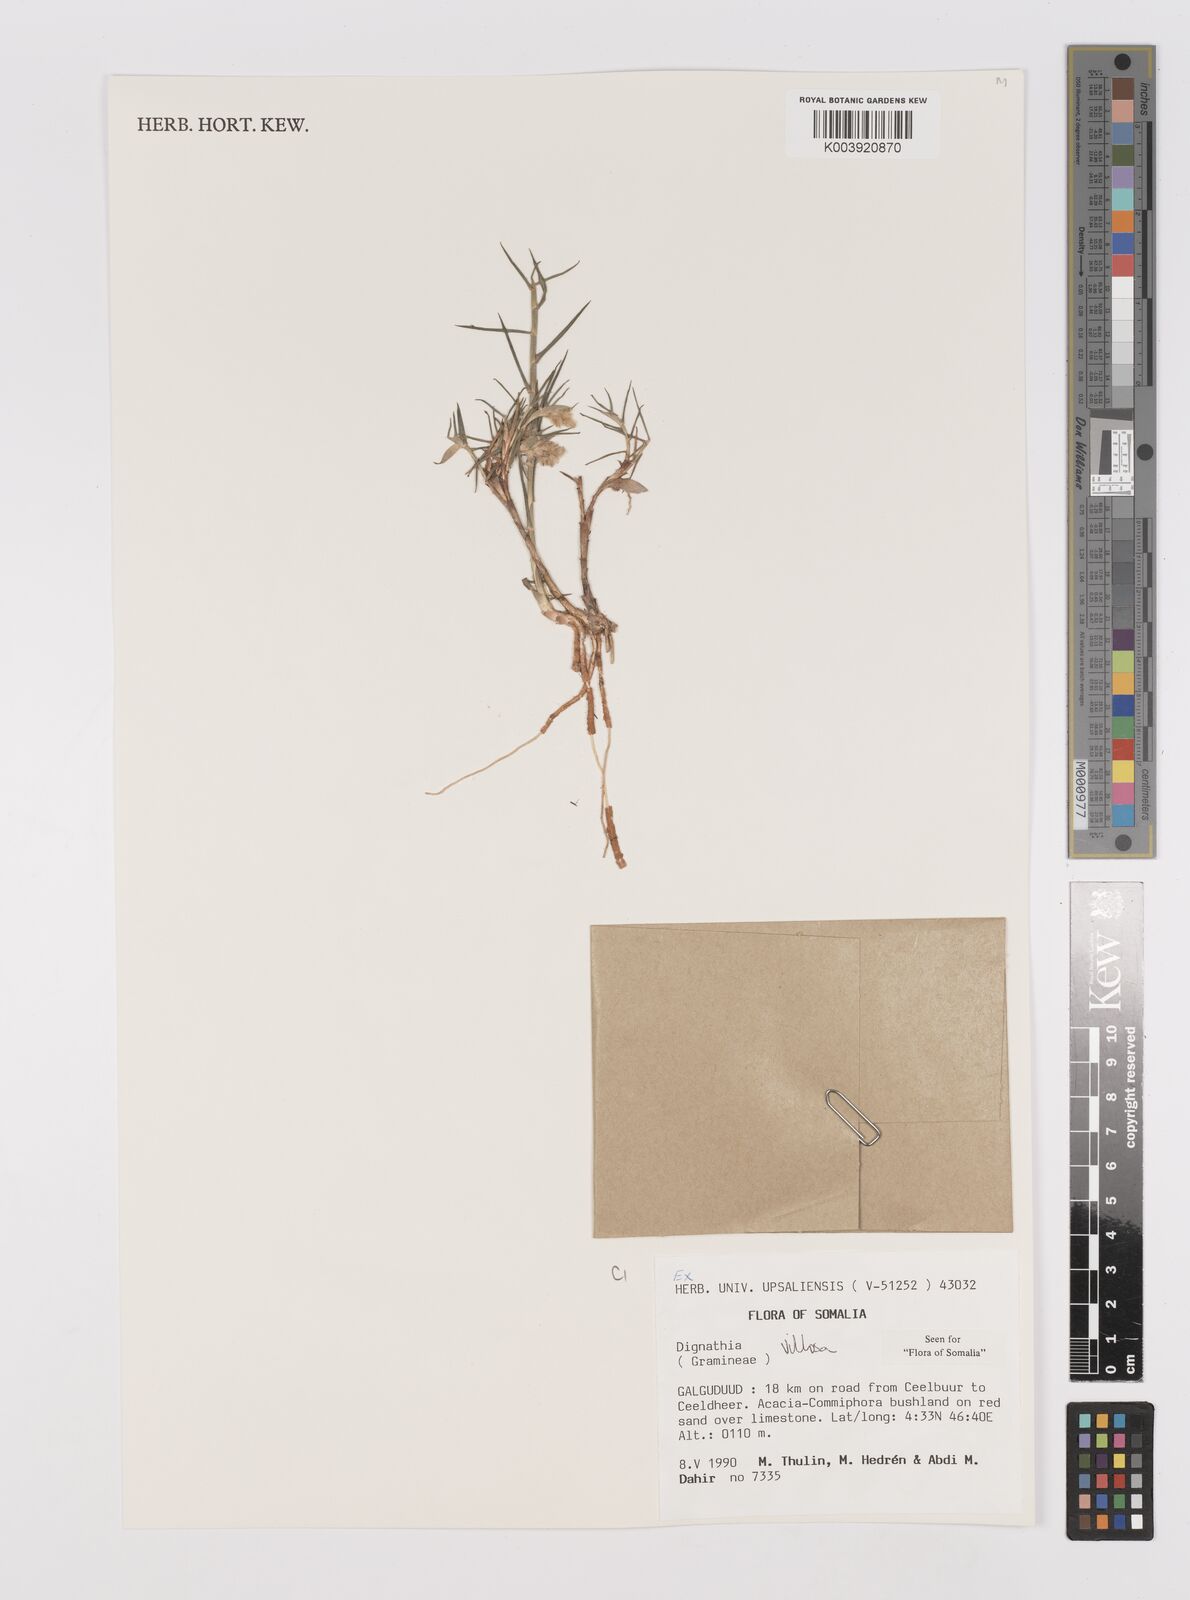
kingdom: Plantae
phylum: Tracheophyta
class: Liliopsida
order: Poales
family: Poaceae
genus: Dignathia
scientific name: Dignathia villosa
